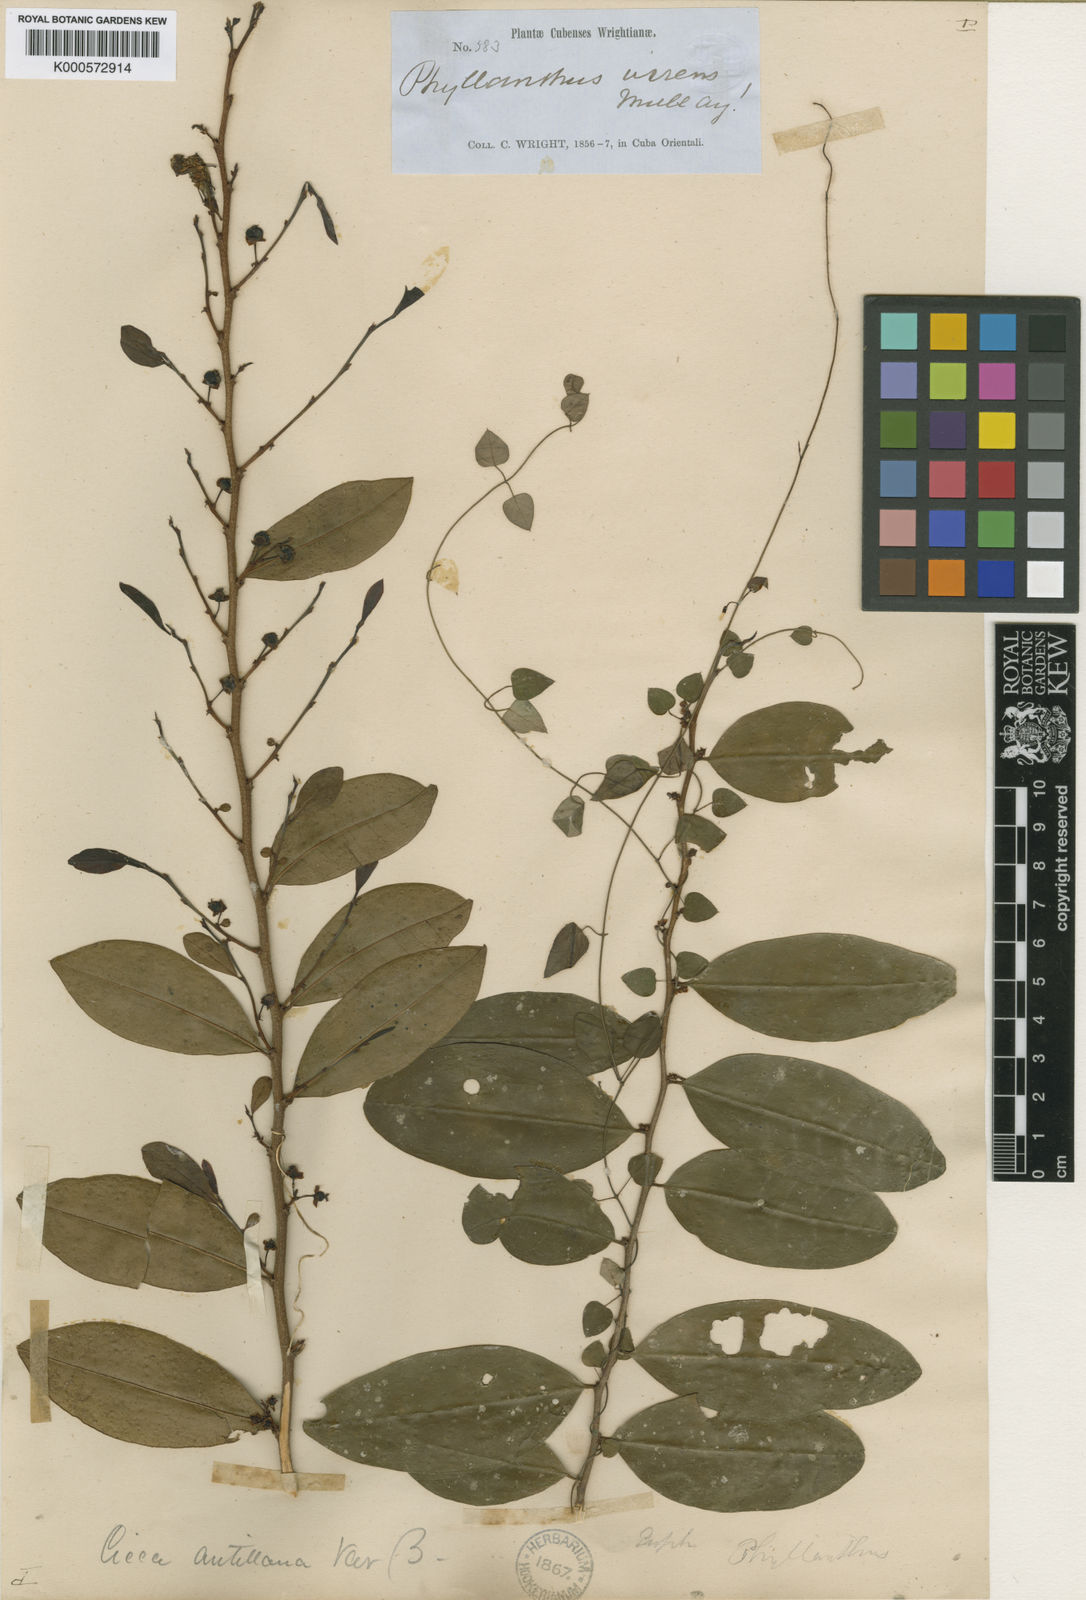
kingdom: Plantae
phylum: Tracheophyta
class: Magnoliopsida
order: Malpighiales
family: Phyllanthaceae
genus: Margaritaria
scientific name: Margaritaria tetracocca
